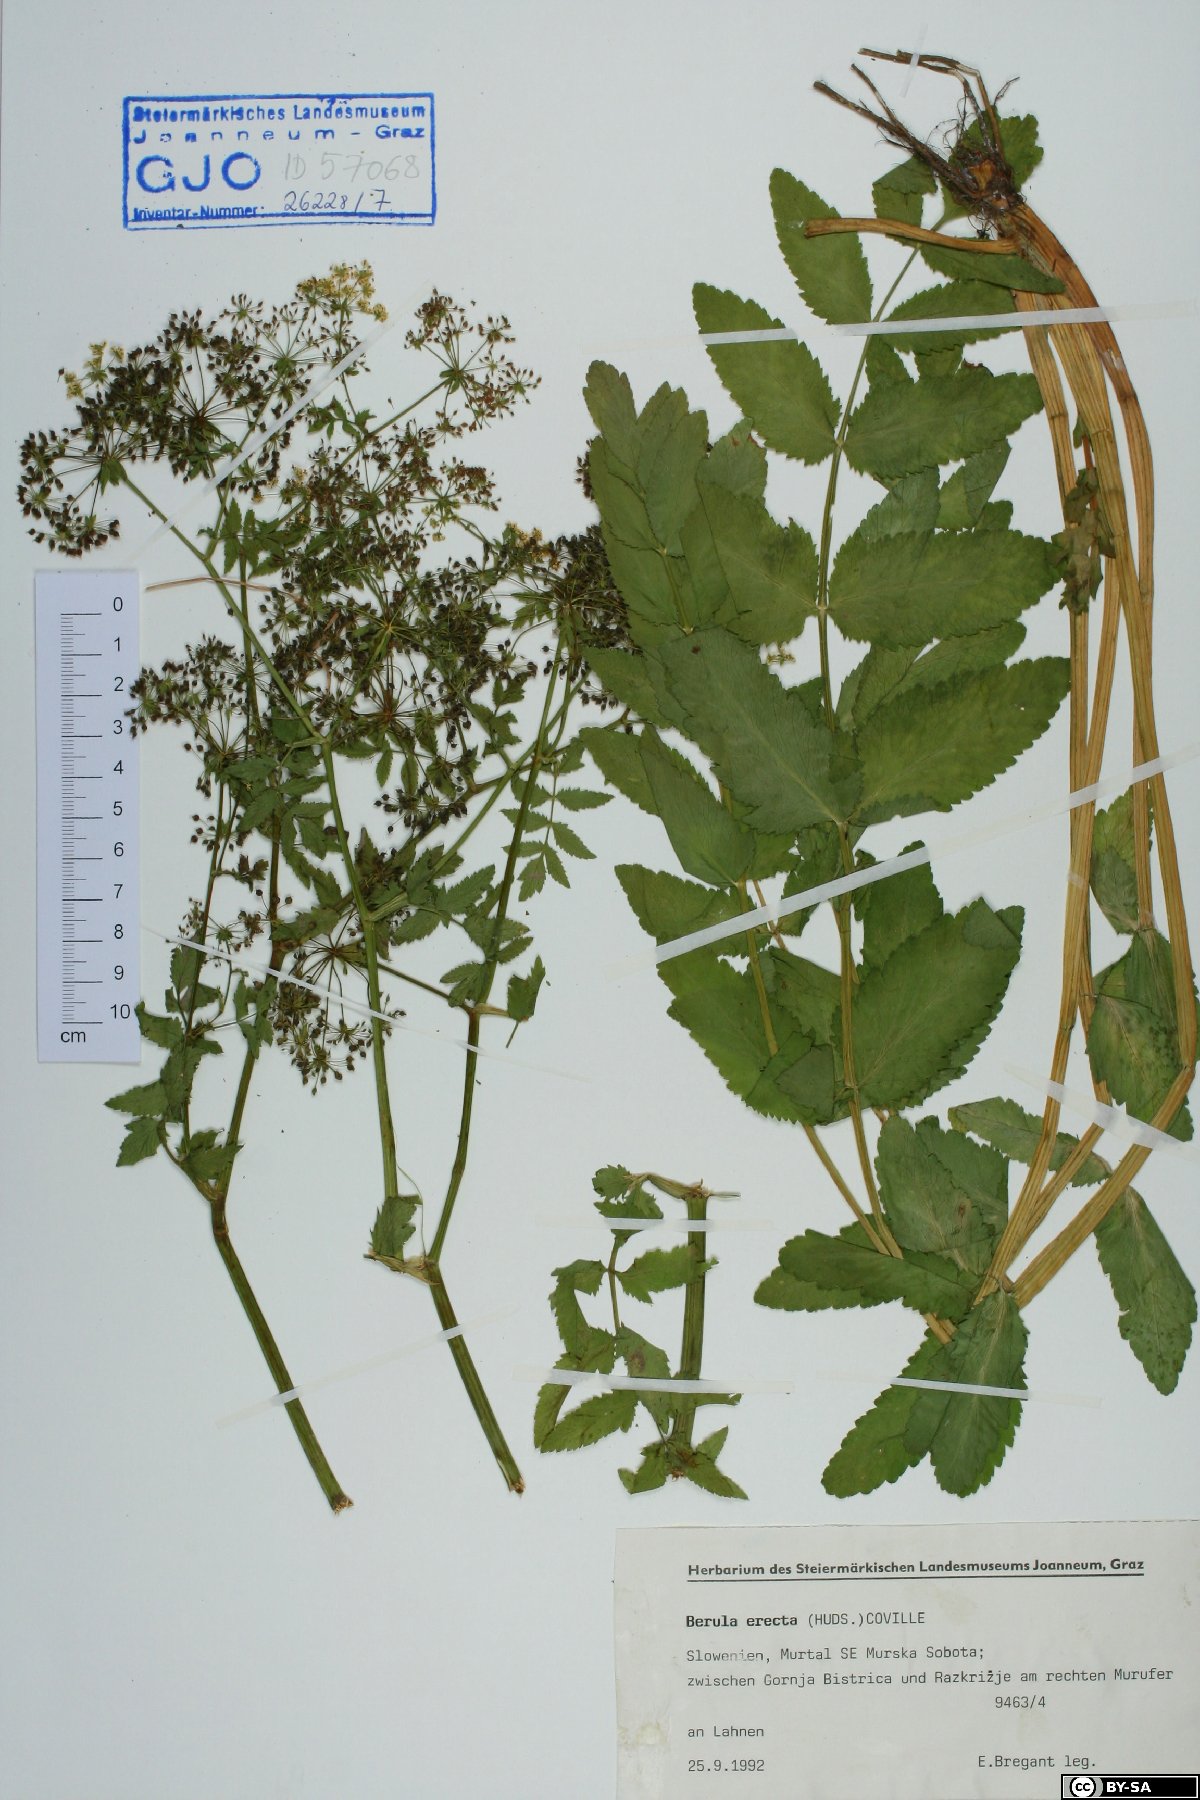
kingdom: Plantae
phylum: Tracheophyta
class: Magnoliopsida
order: Apiales
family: Apiaceae
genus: Berula
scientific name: Berula erecta
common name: Lesser water-parsnip
